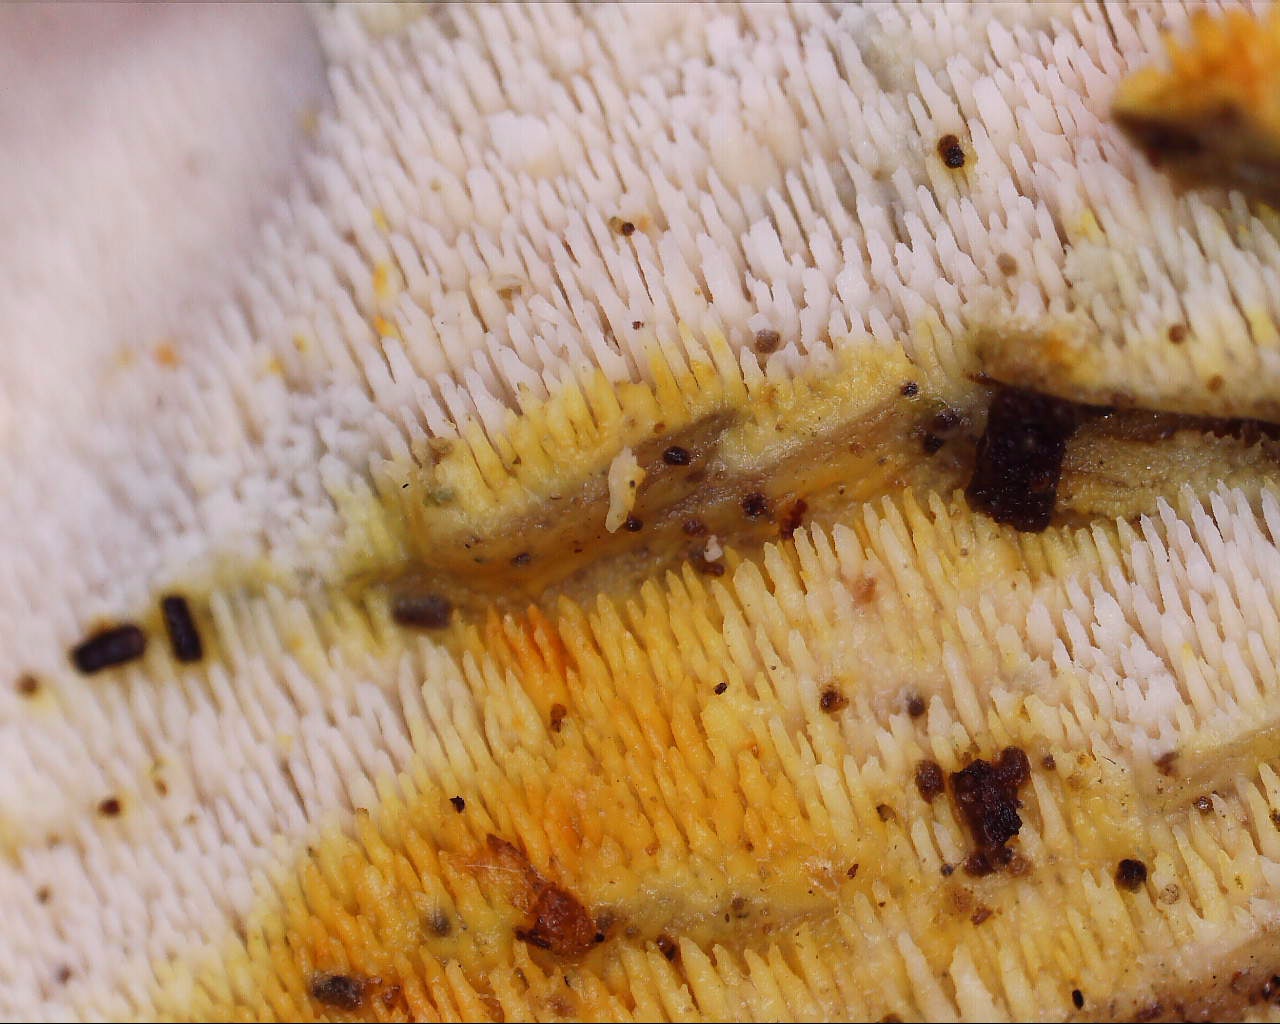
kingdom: Fungi
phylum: Basidiomycota
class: Agaricomycetes
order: Polyporales
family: Meruliaceae
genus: Mycoacia
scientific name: Mycoacia
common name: vokspig
